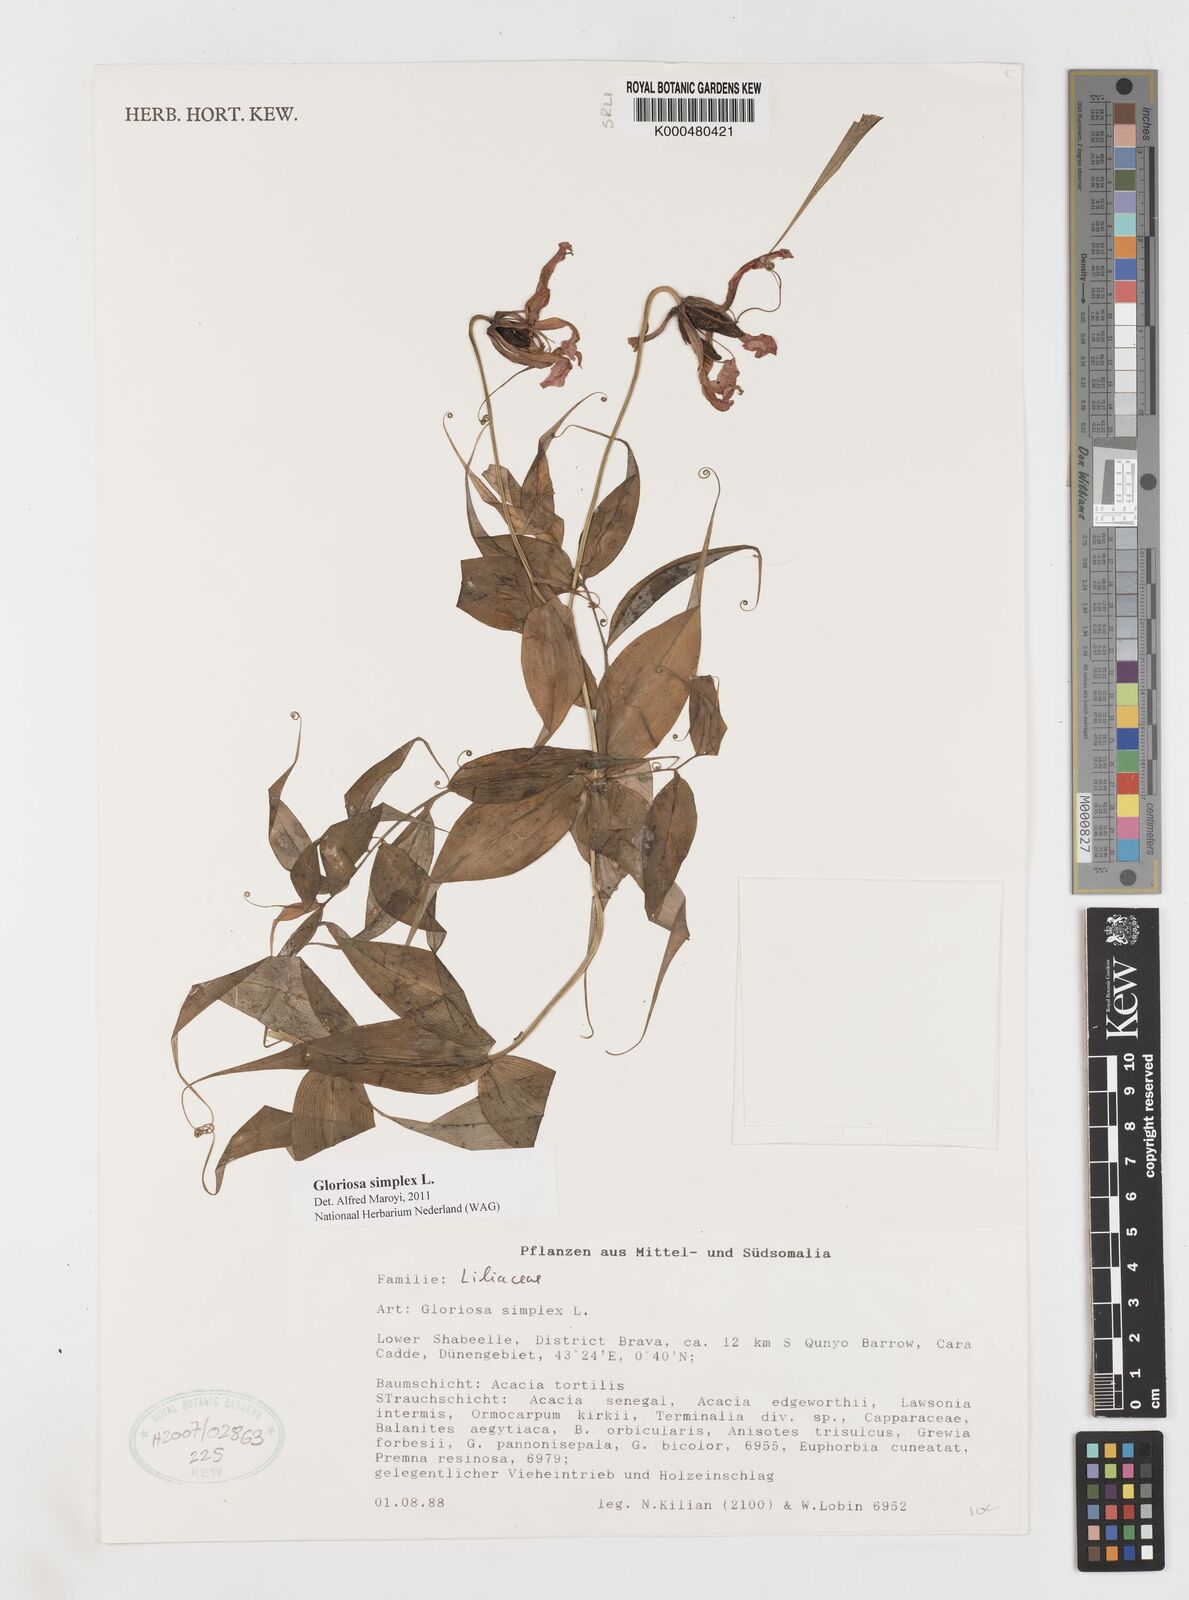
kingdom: Plantae
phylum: Tracheophyta
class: Liliopsida
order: Liliales
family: Colchicaceae
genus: Gloriosa
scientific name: Gloriosa simplex
